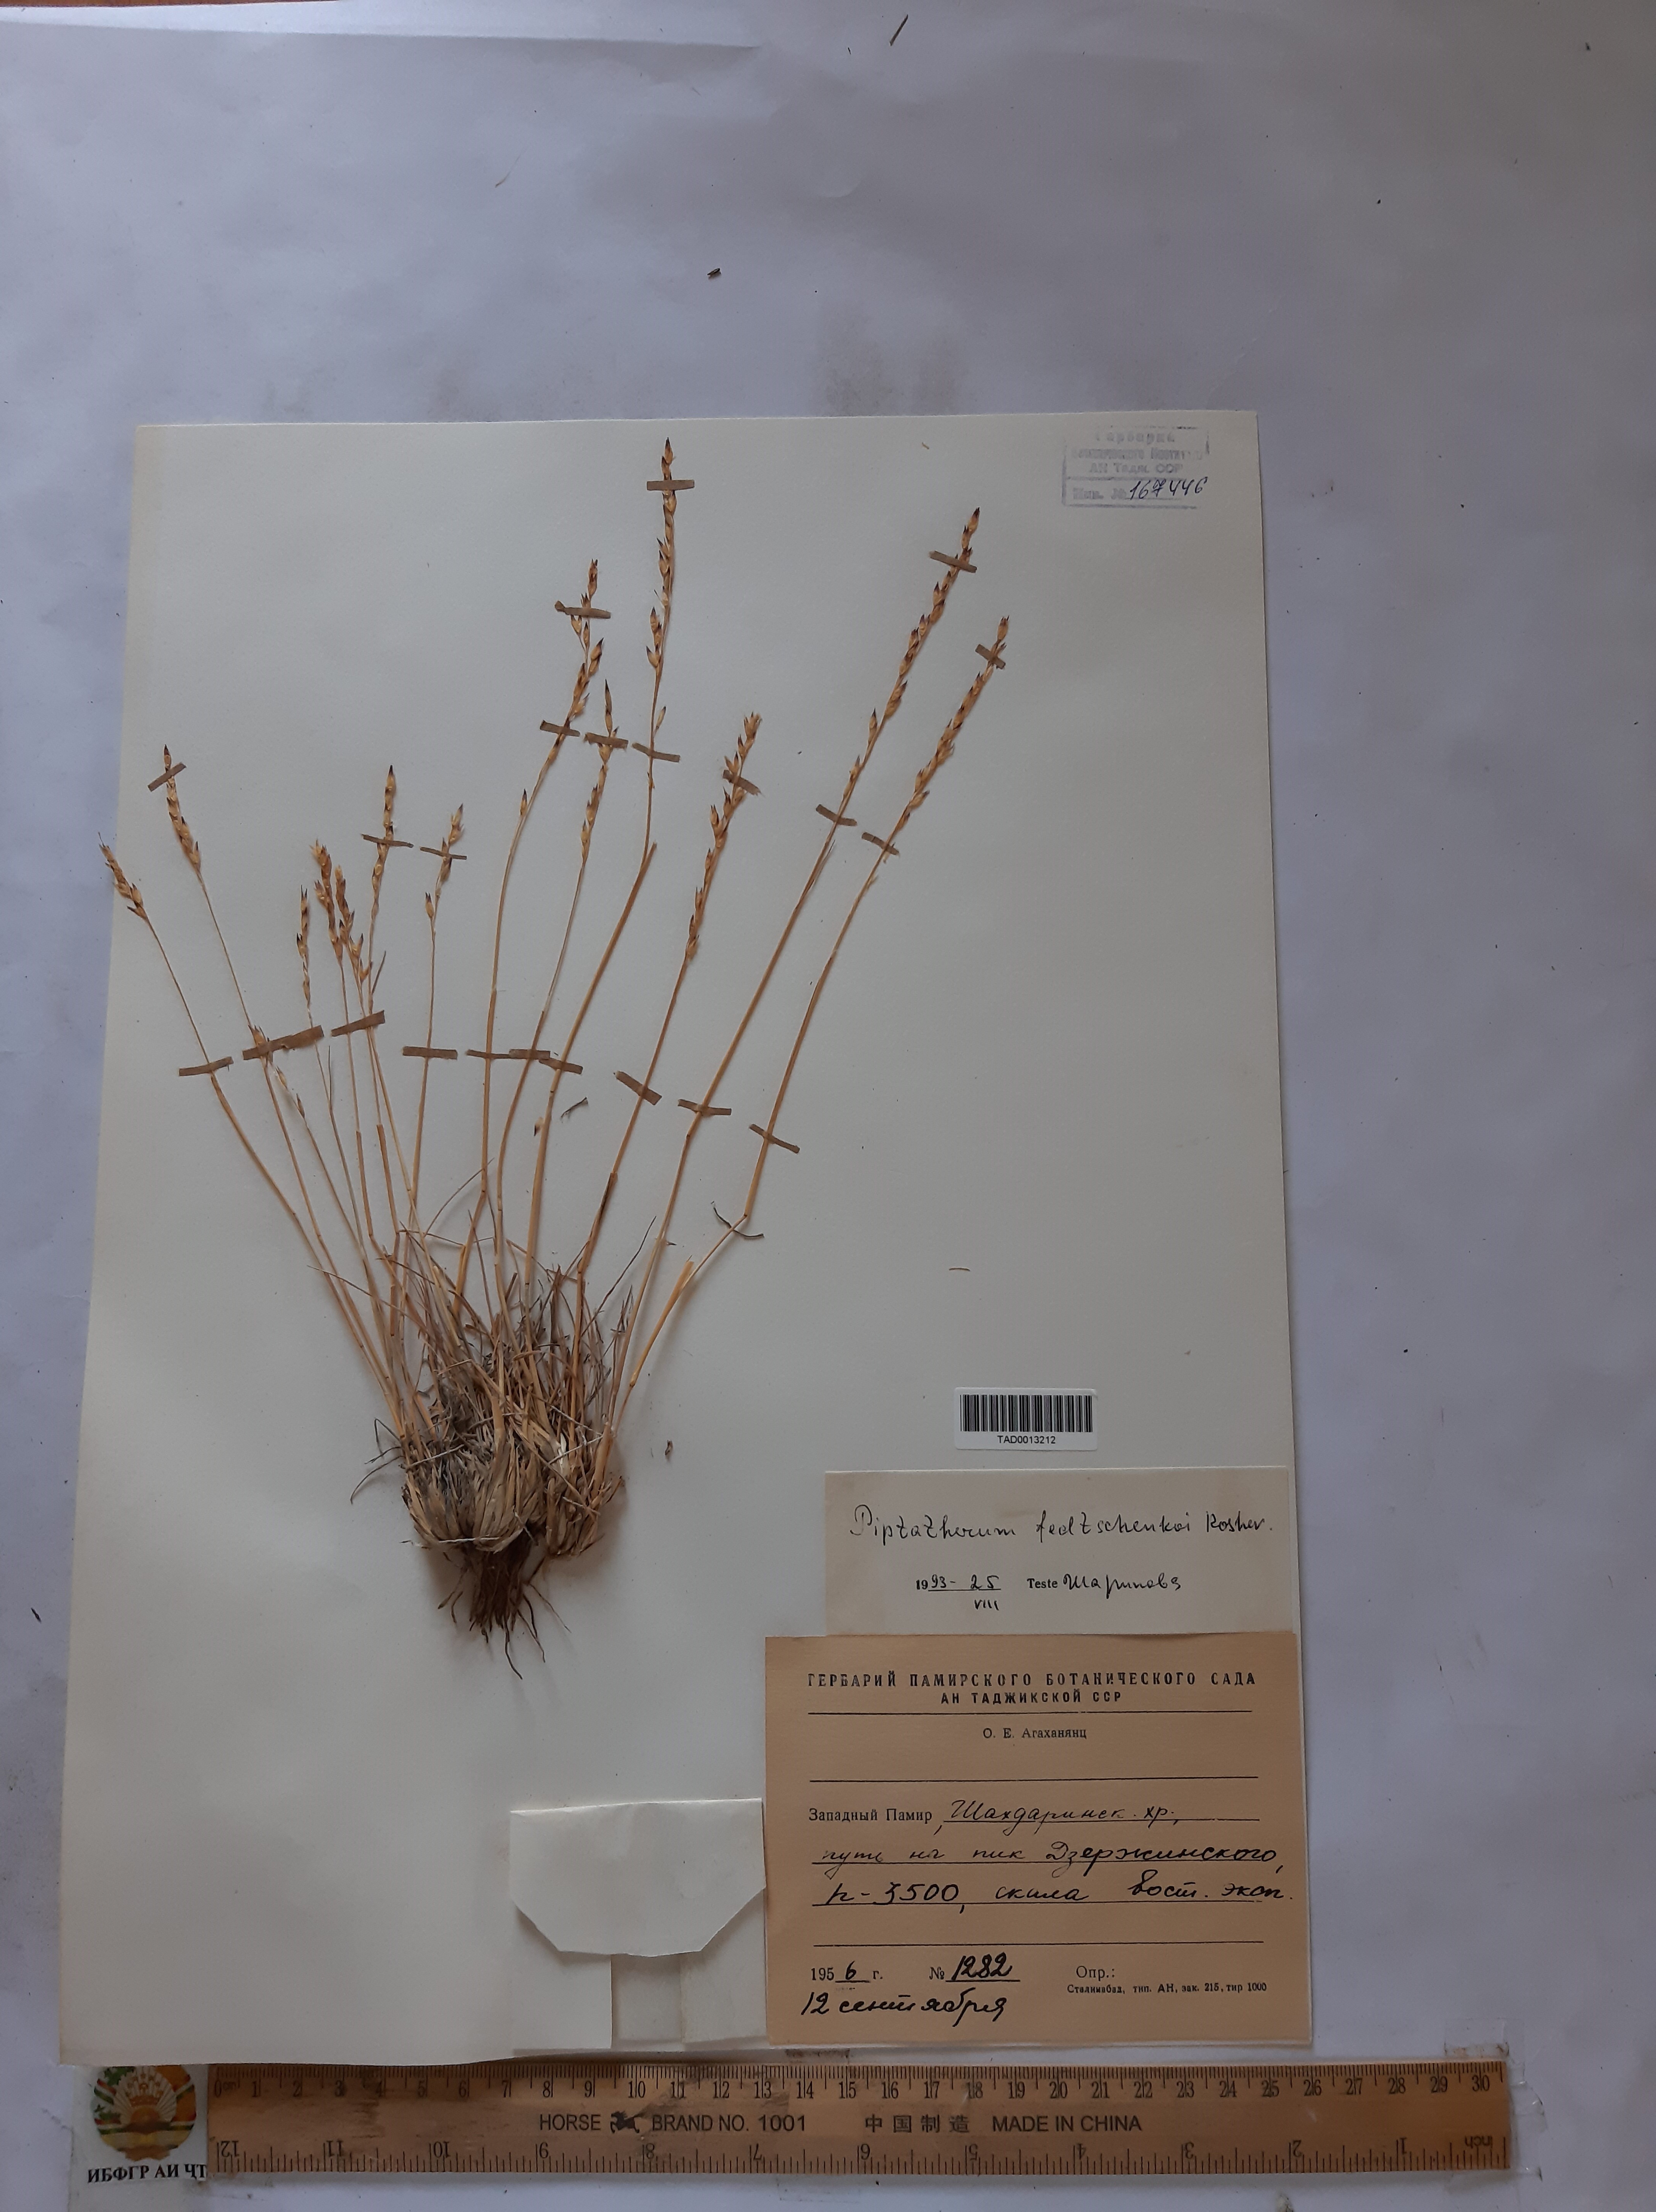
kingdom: Plantae
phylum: Tracheophyta
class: Liliopsida
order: Poales
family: Poaceae
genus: Piptatherum
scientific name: Piptatherum sogdianum
